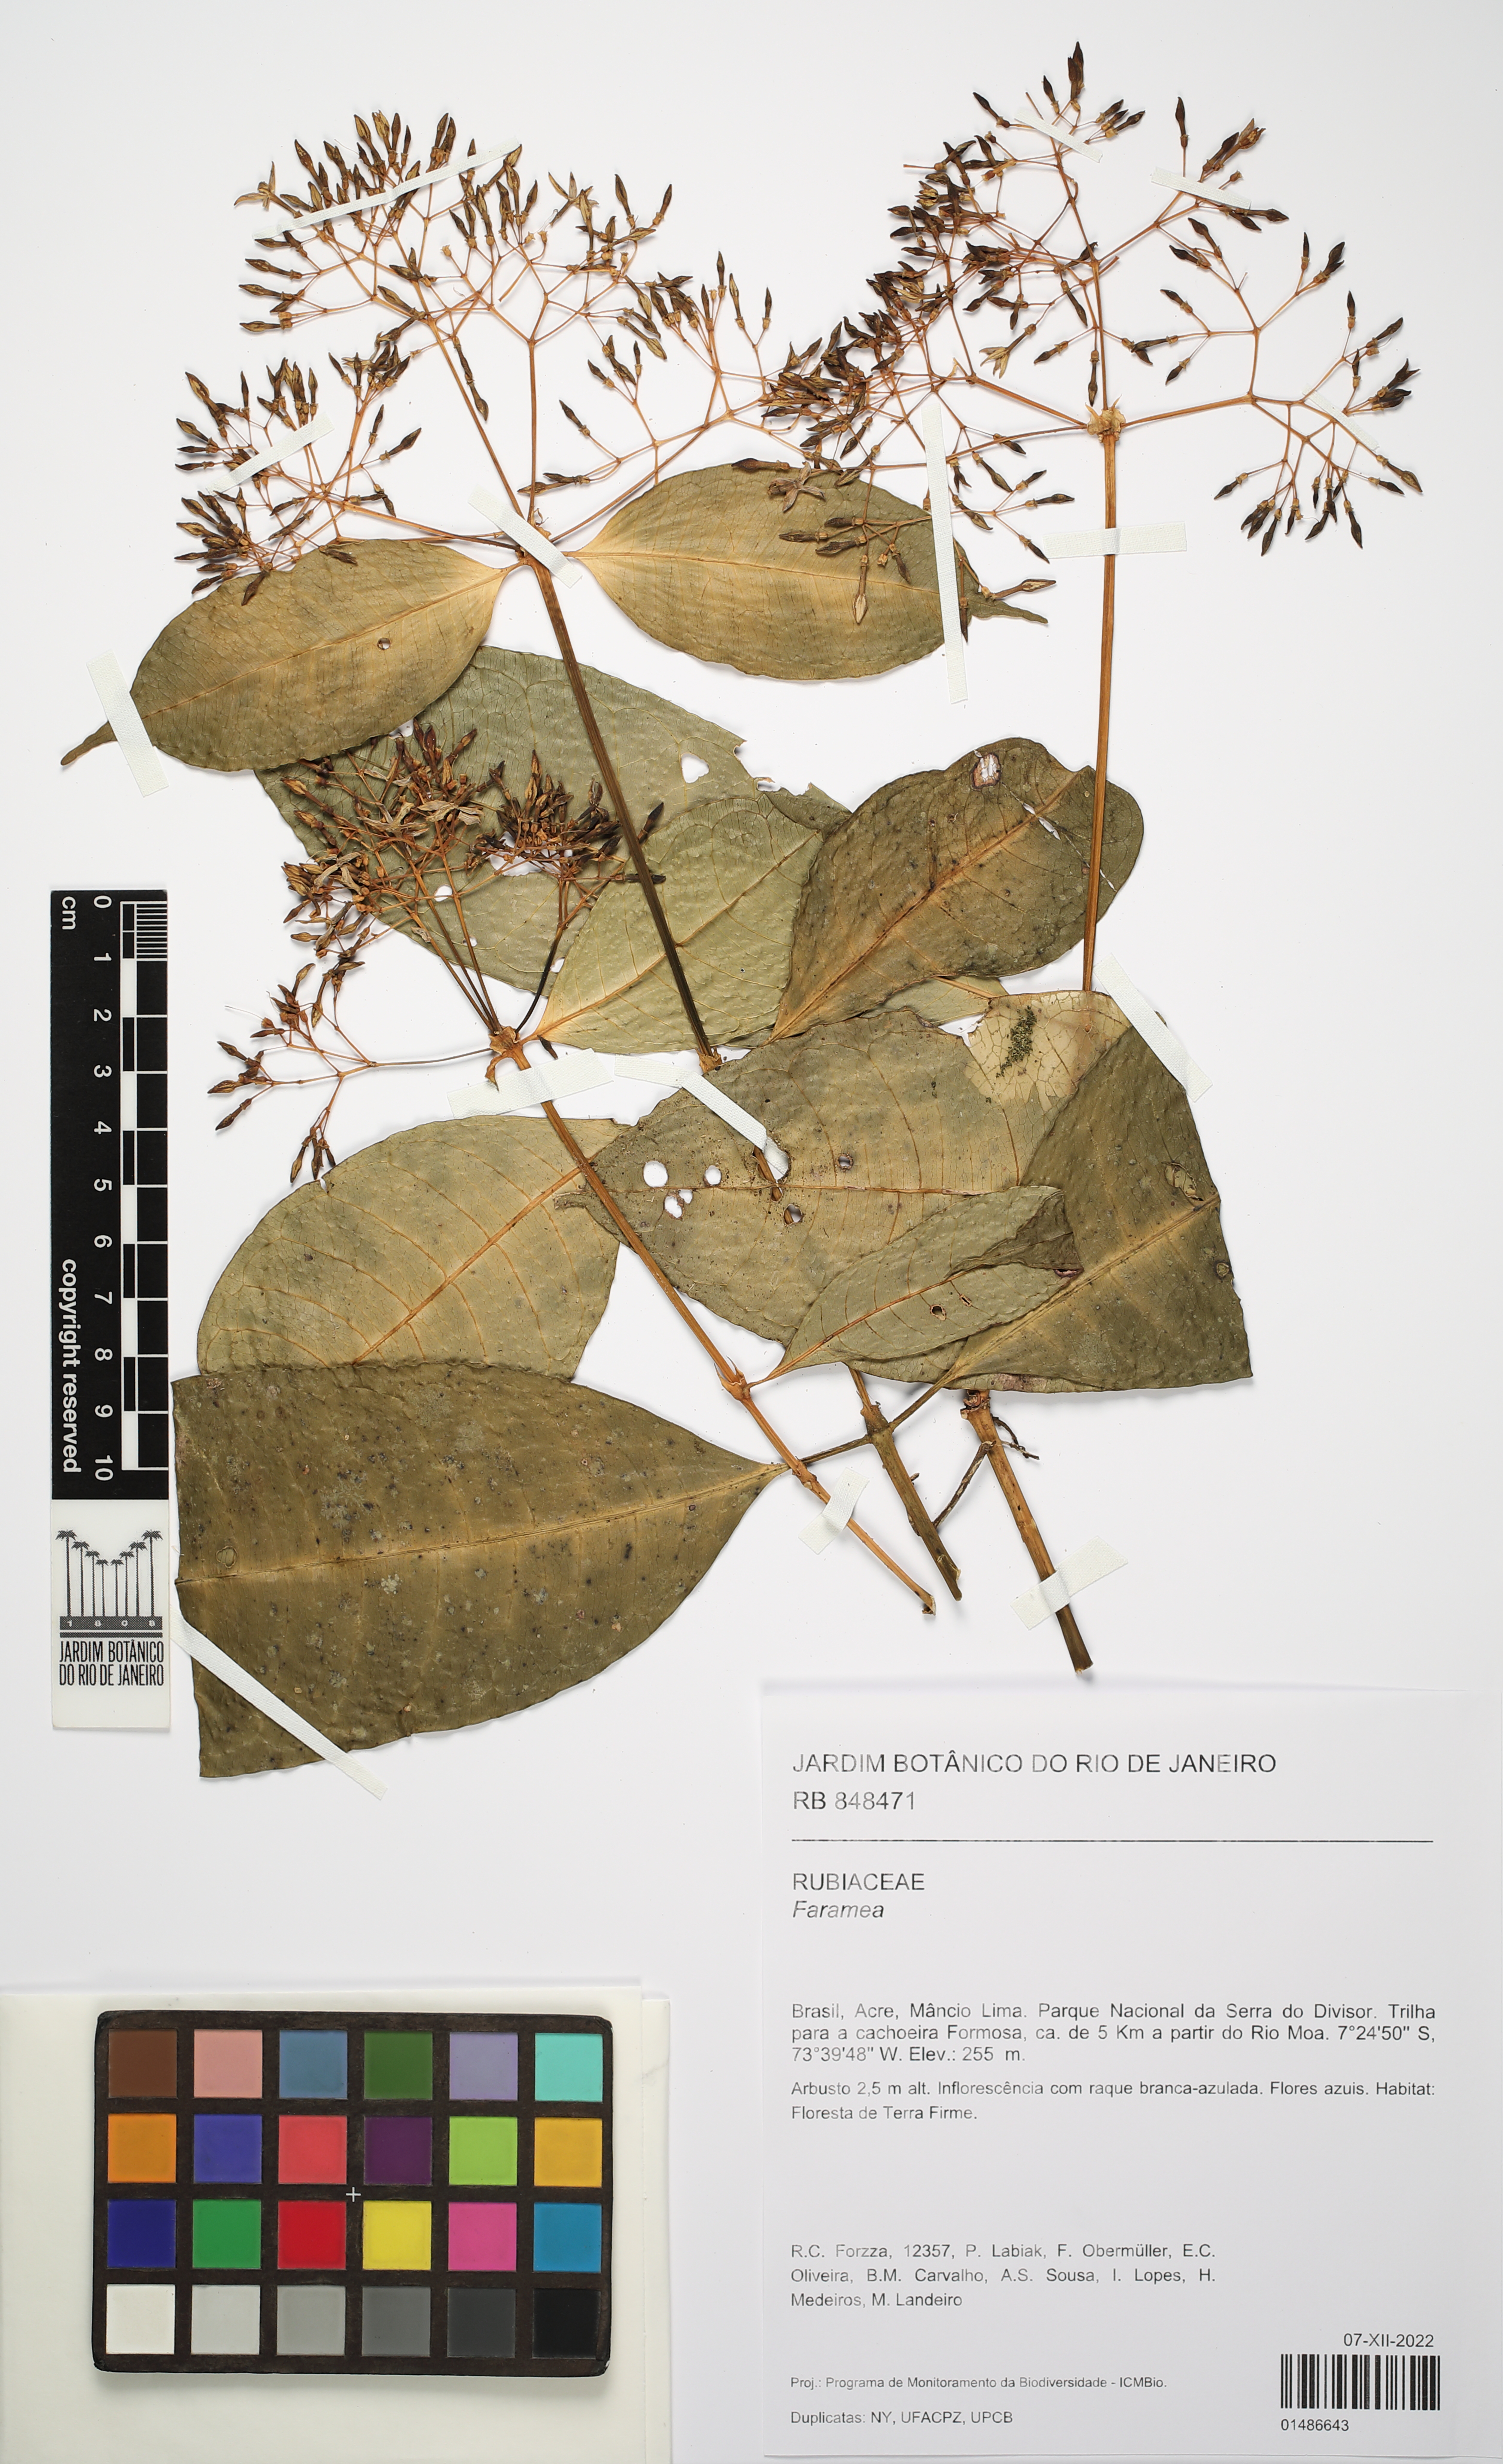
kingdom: Plantae
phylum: Tracheophyta
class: Magnoliopsida
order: Gentianales
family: Rubiaceae
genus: Faramea
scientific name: Faramea
